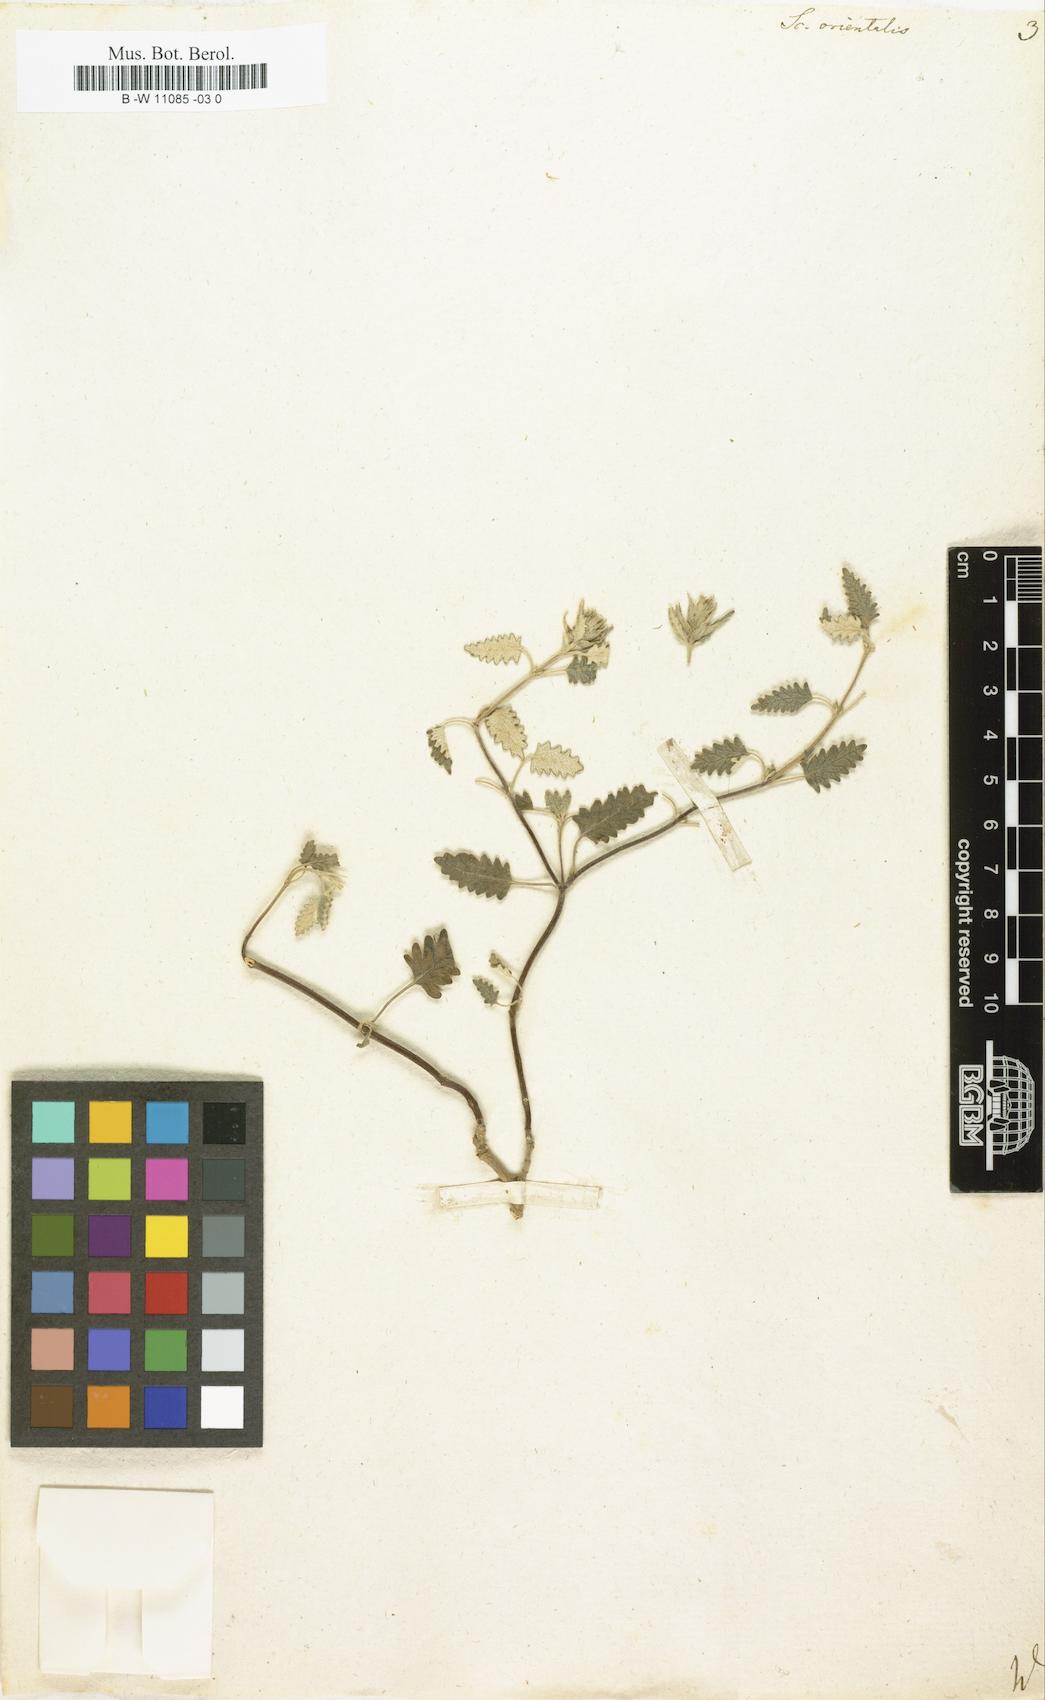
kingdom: Plantae
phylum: Tracheophyta
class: Magnoliopsida
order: Lamiales
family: Lamiaceae
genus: Scutellaria
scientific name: Scutellaria orientalis
